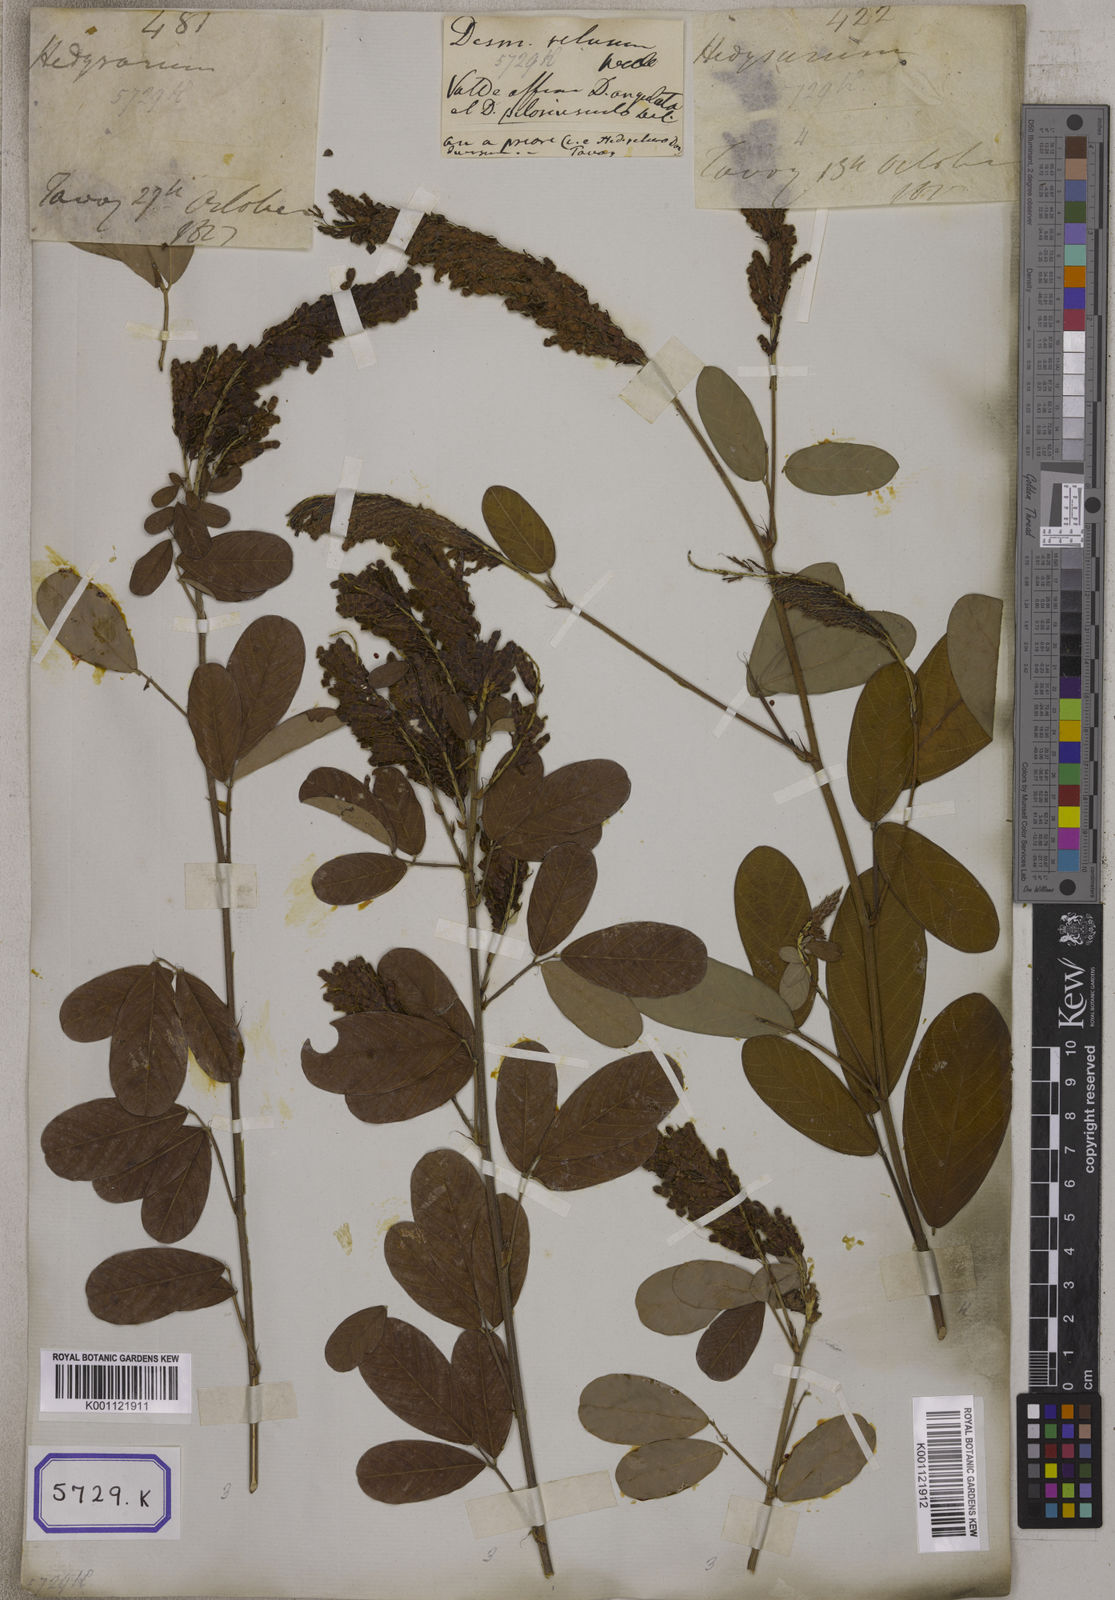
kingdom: Plantae
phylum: Tracheophyta
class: Magnoliopsida
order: Fabales
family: Fabaceae
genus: Desmodium
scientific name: Desmodium
